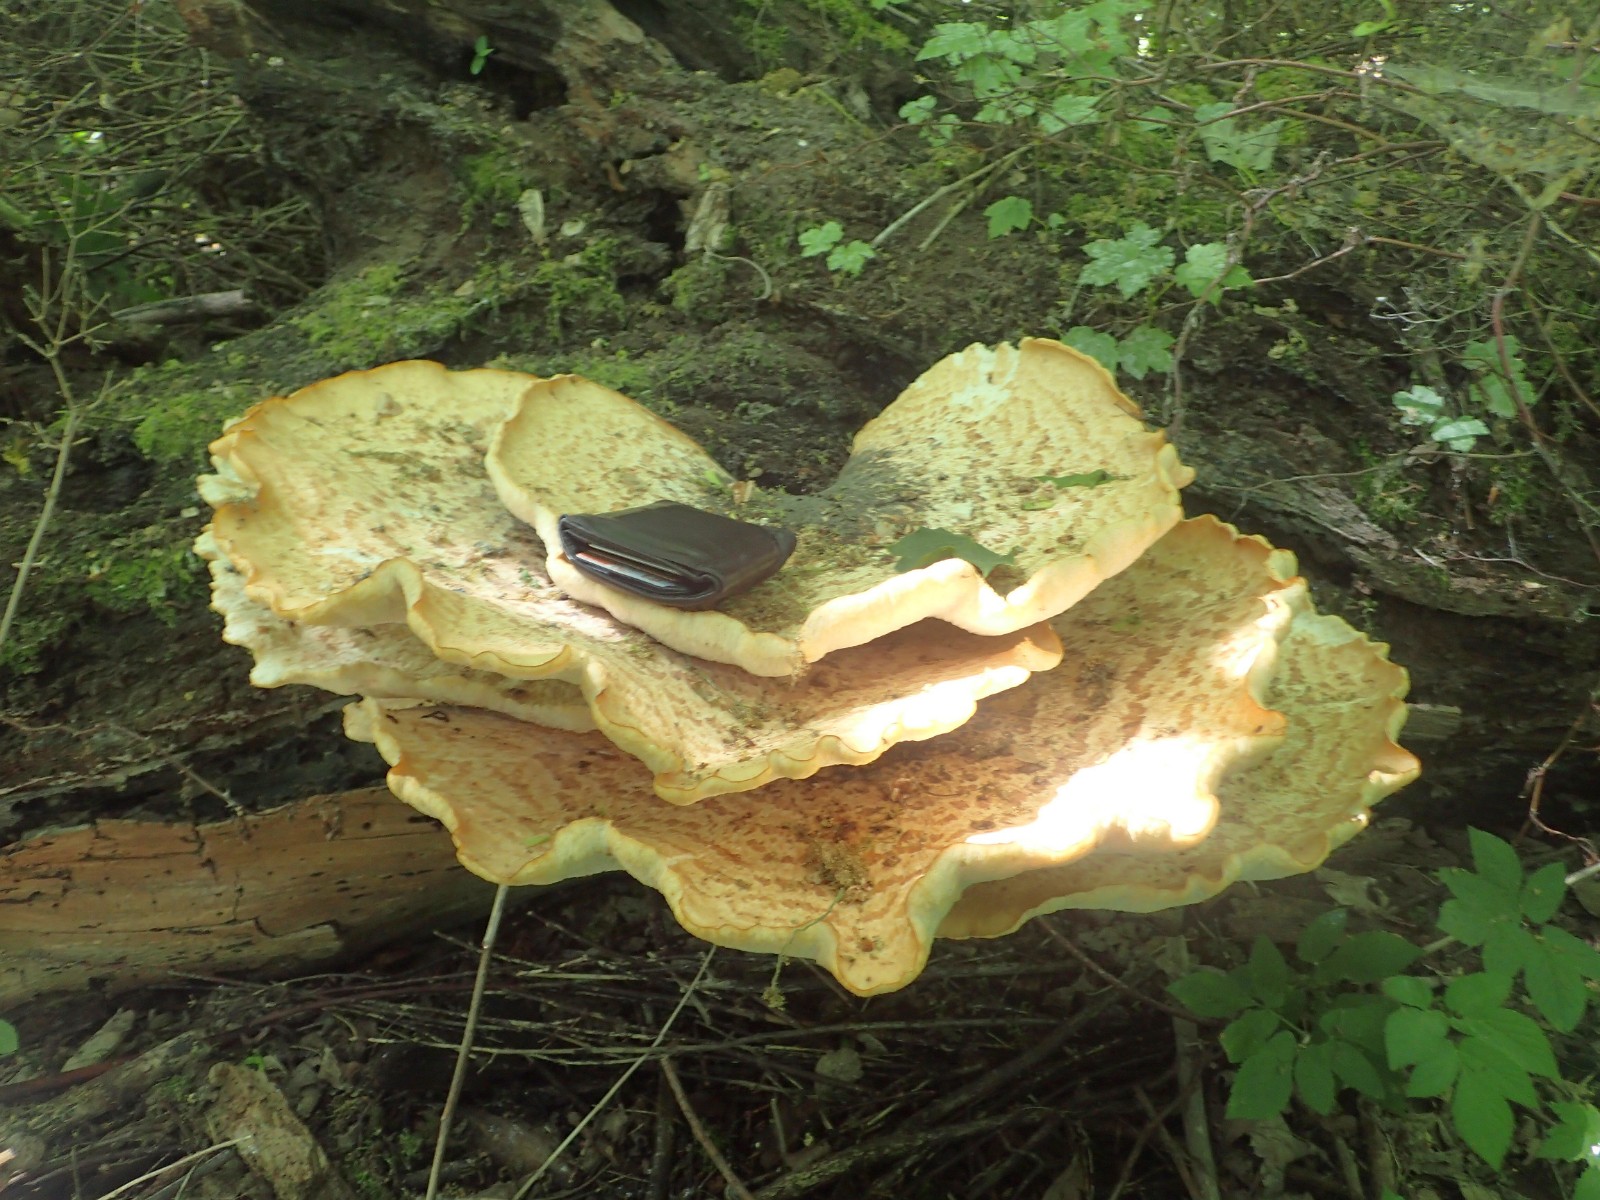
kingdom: Fungi
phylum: Basidiomycota
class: Agaricomycetes
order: Polyporales
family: Polyporaceae
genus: Cerioporus
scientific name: Cerioporus squamosus
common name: skællet stilkporesvamp
